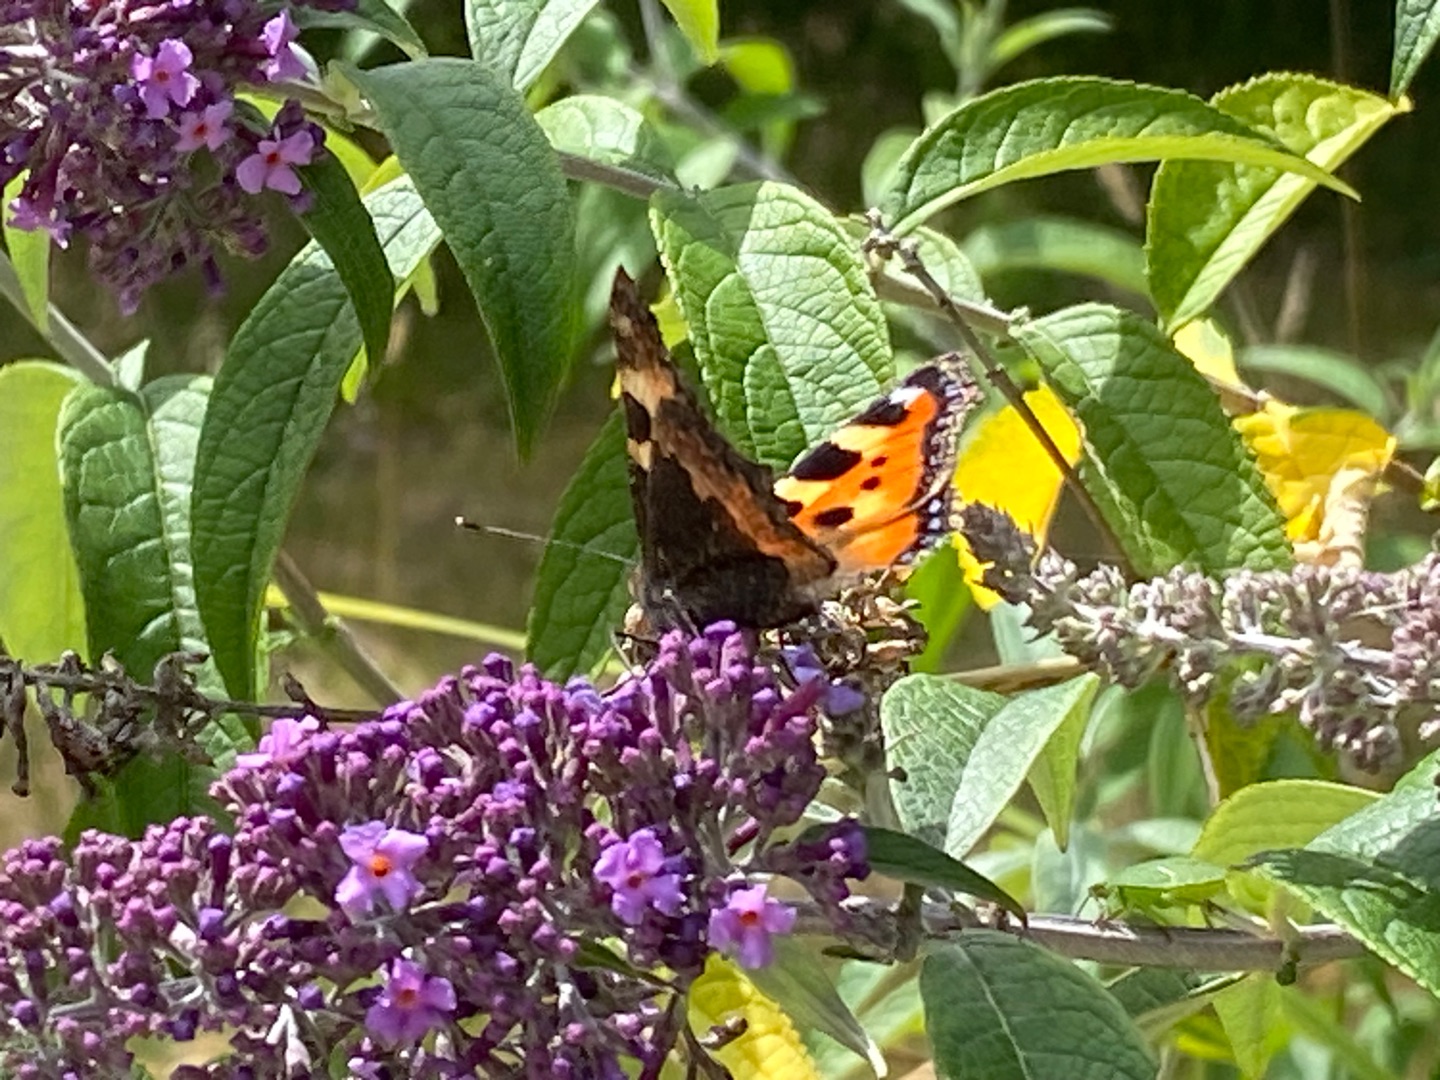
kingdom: Animalia
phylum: Arthropoda
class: Insecta
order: Lepidoptera
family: Nymphalidae
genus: Aglais
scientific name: Aglais urticae
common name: Nældens takvinge
